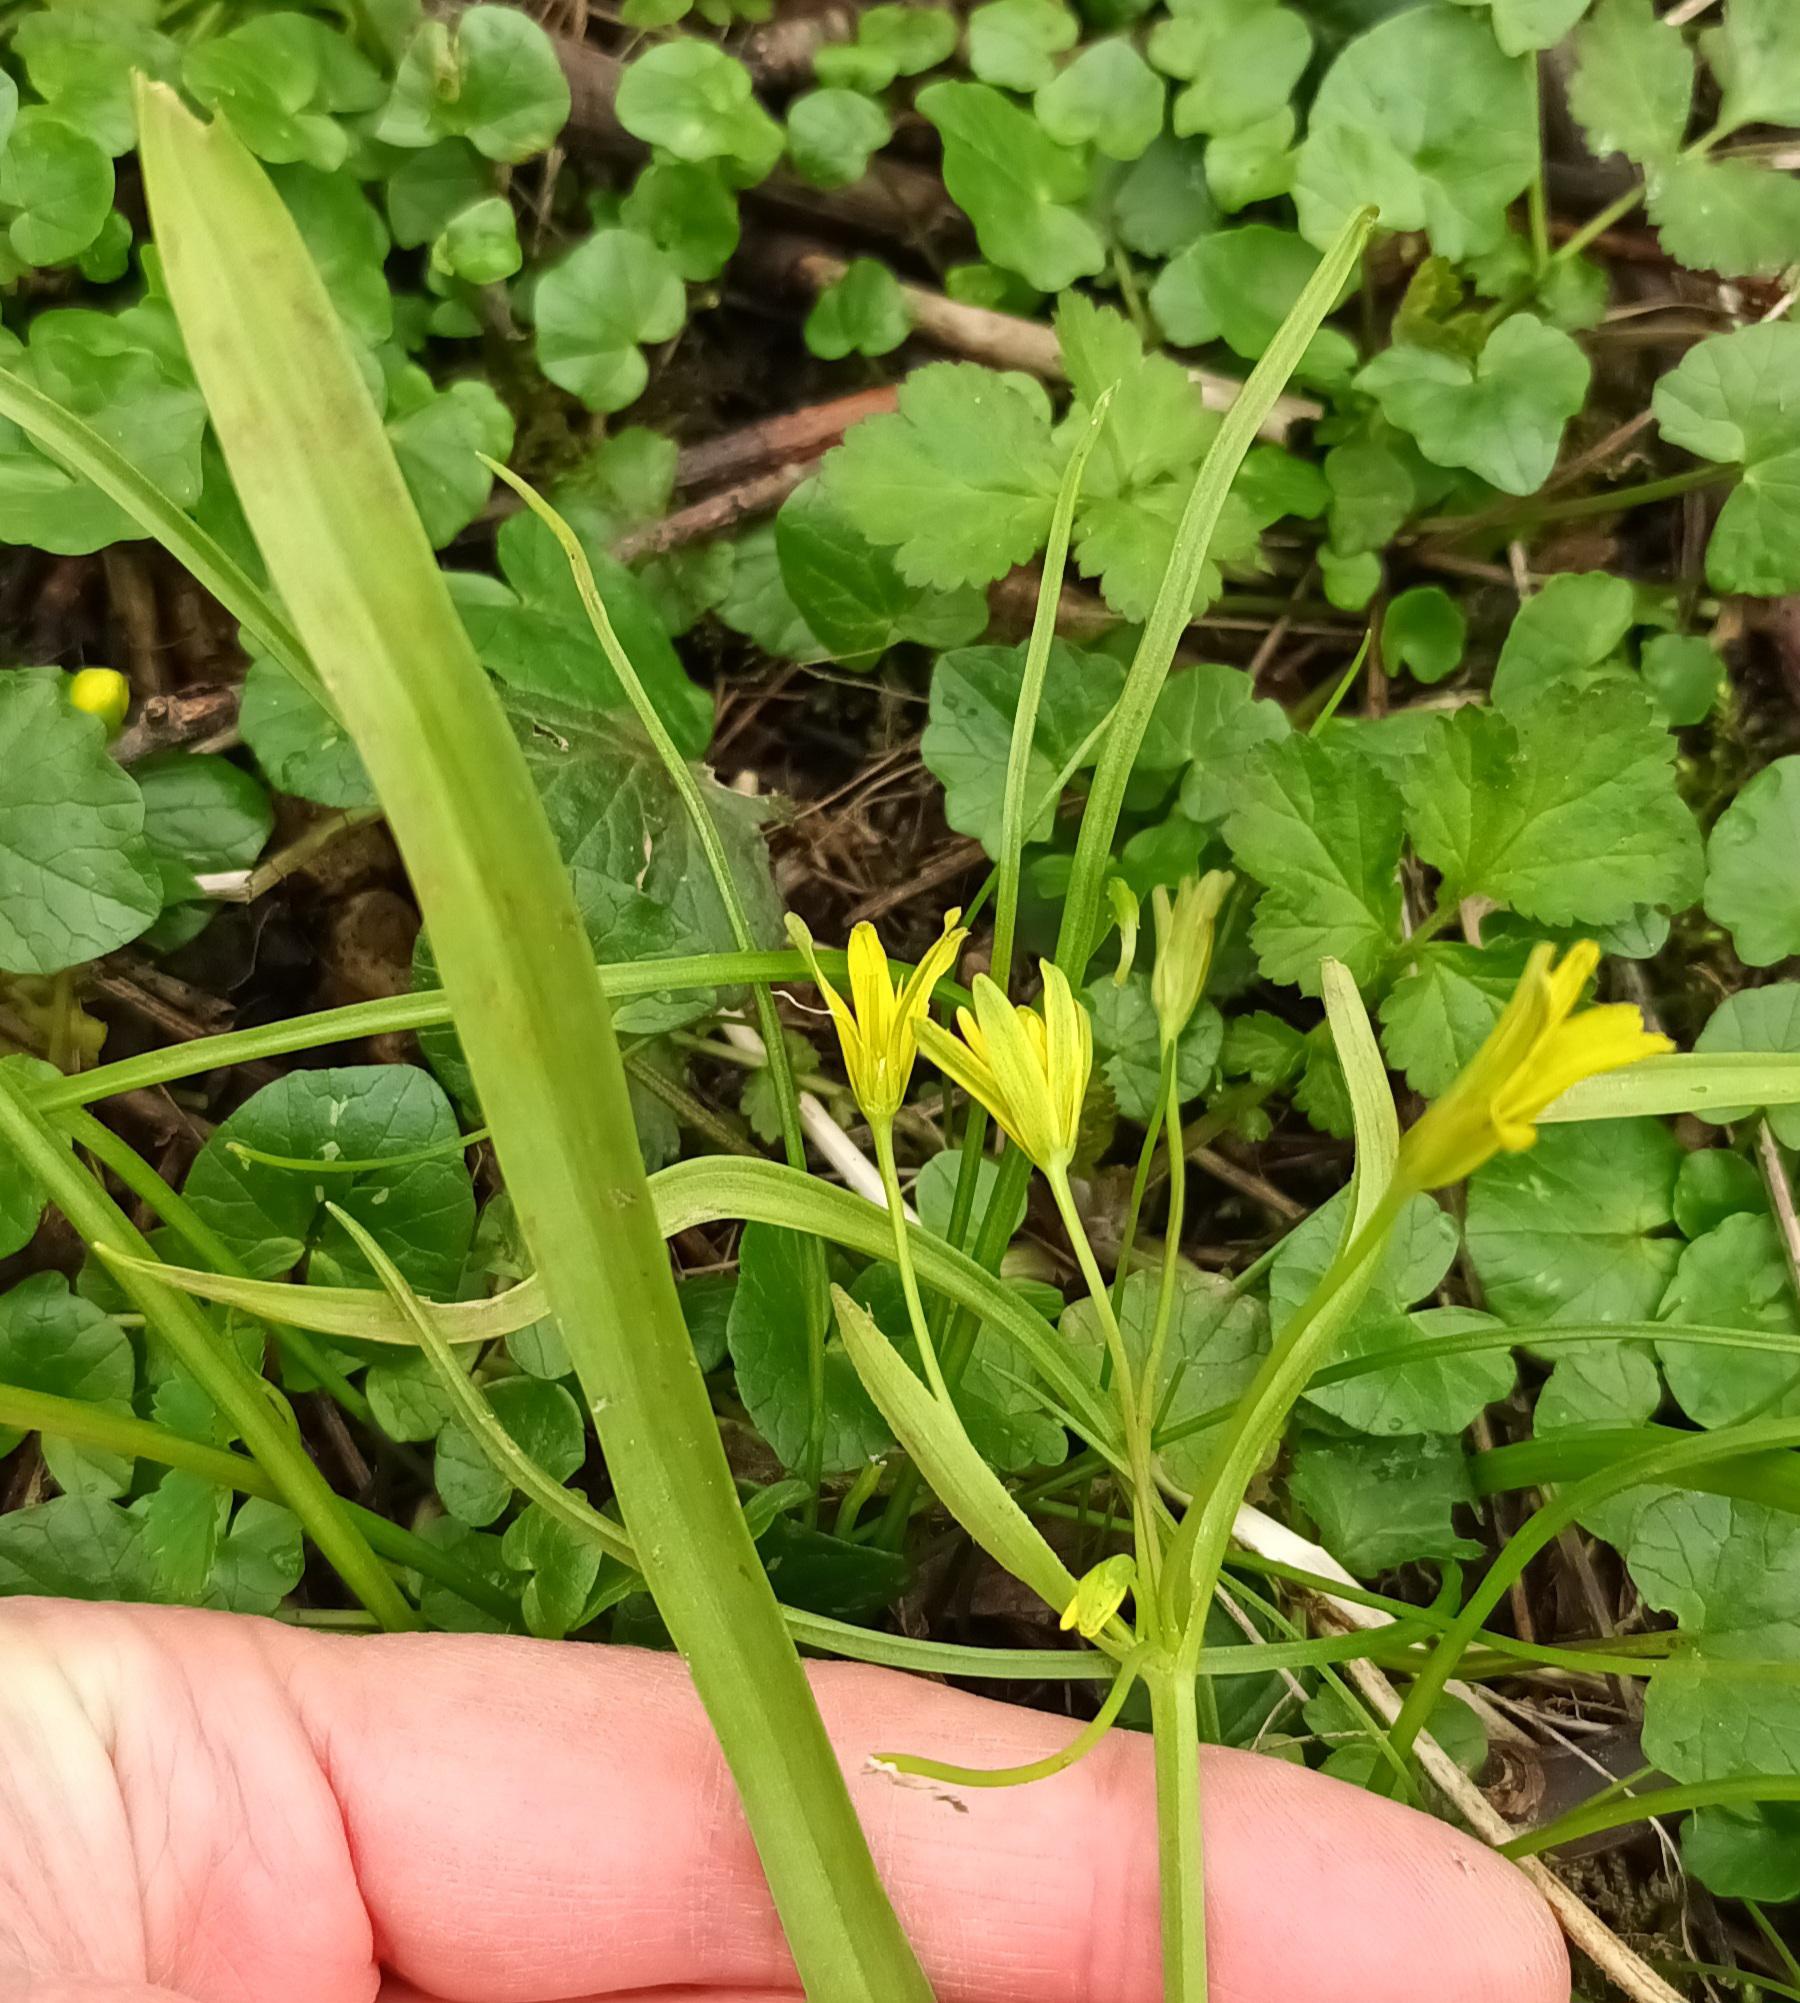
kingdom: Plantae
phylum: Tracheophyta
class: Liliopsida
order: Liliales
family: Liliaceae
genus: Gagea
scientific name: Gagea lutea
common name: Almindelig guldstjerne
